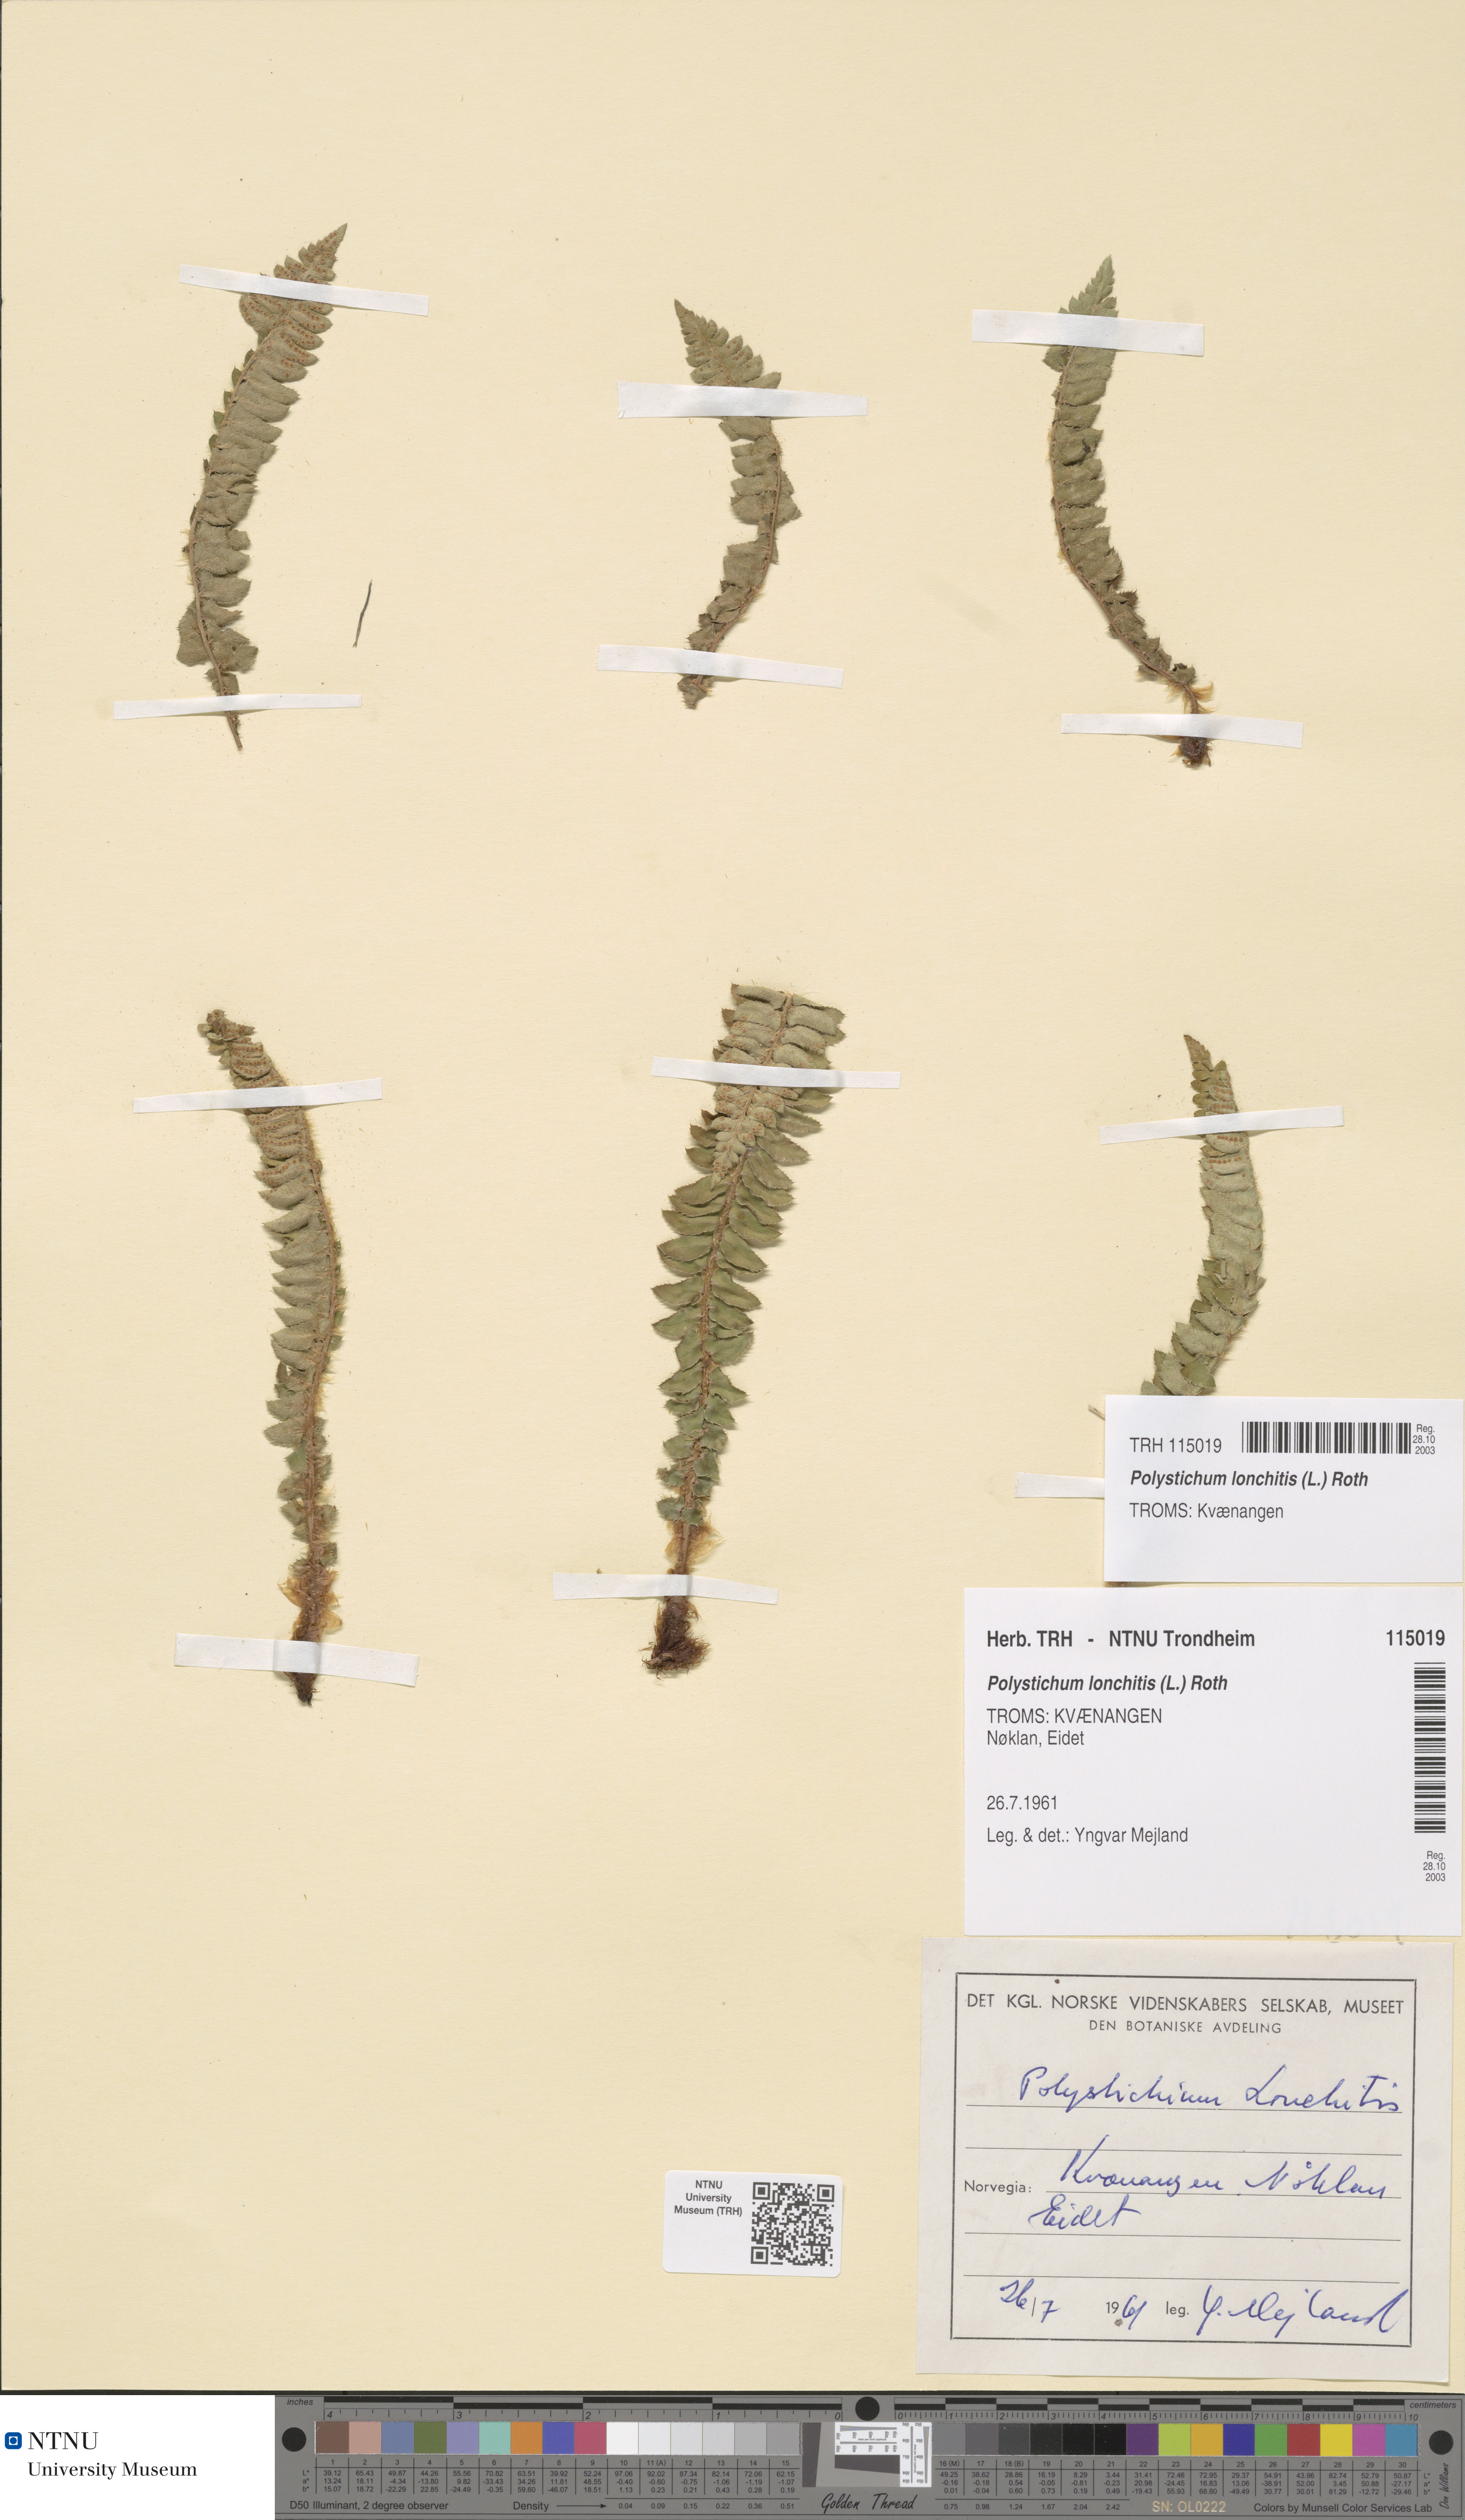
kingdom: Plantae
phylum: Tracheophyta
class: Polypodiopsida
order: Polypodiales
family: Dryopteridaceae
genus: Polystichum
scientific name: Polystichum lonchitis
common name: Holly fern
